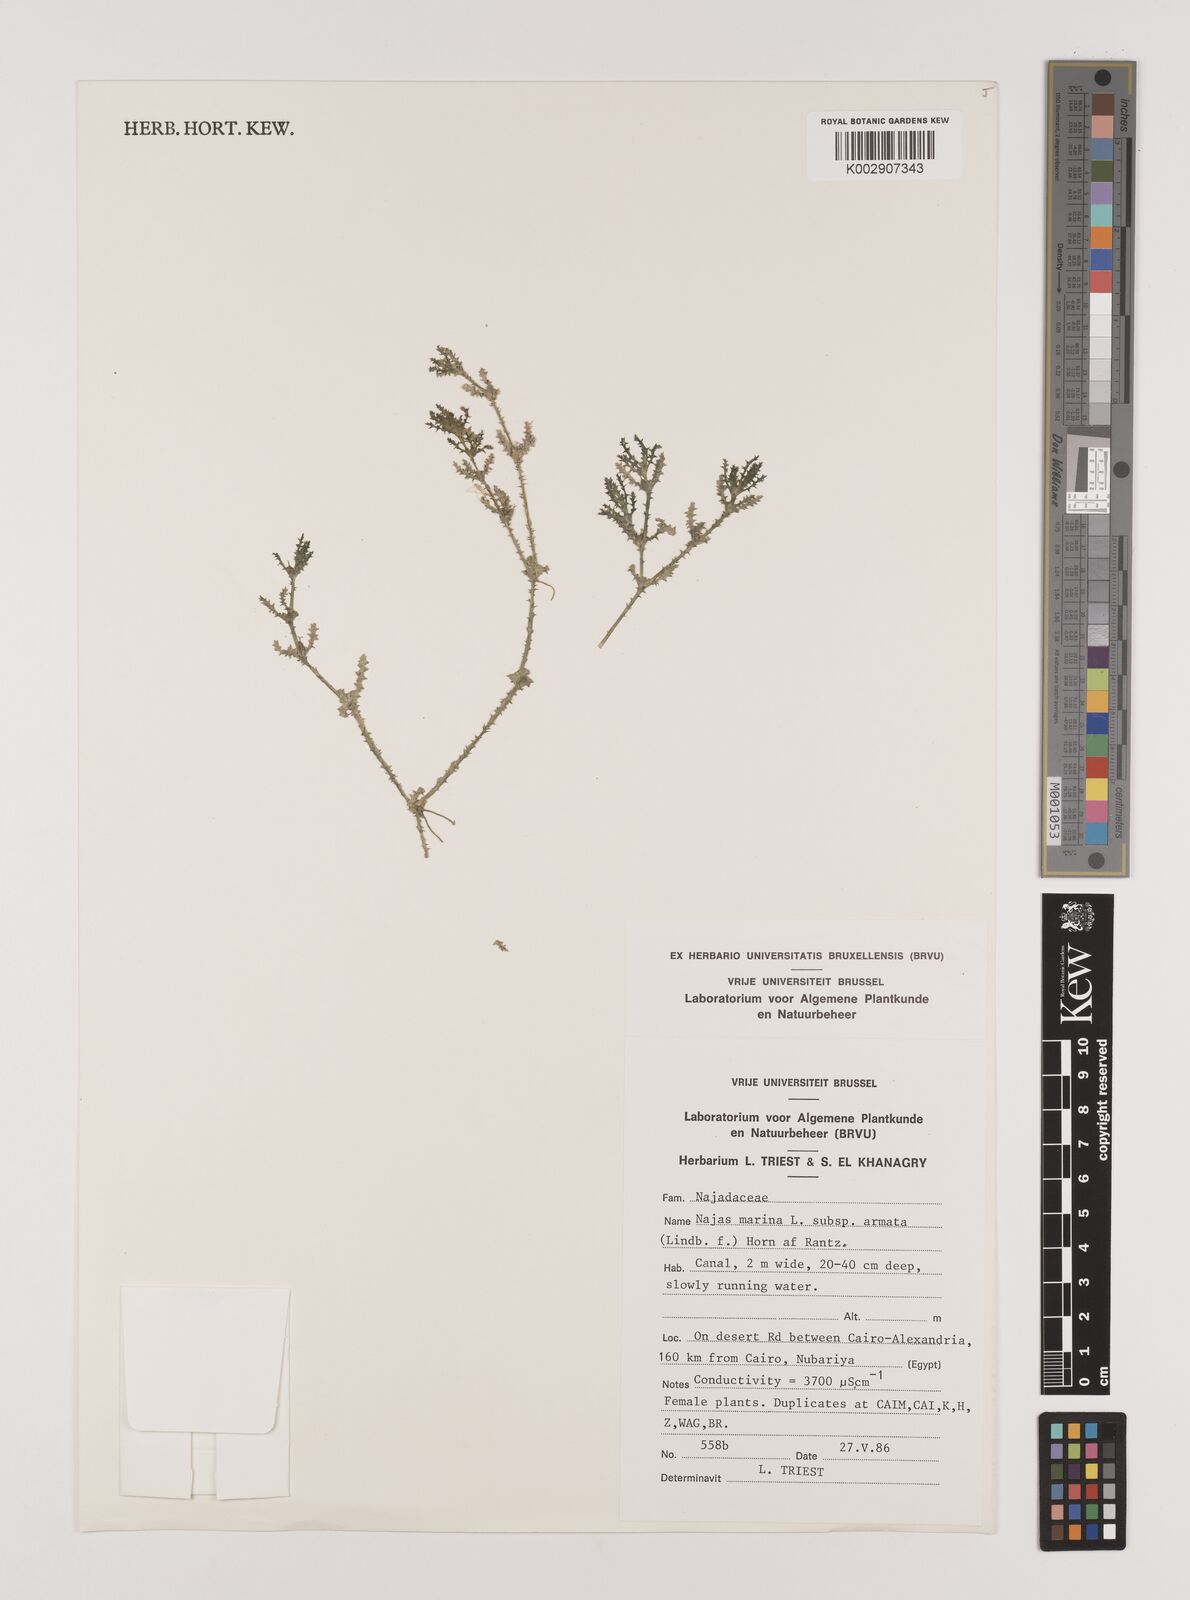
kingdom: Plantae
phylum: Tracheophyta
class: Liliopsida
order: Alismatales
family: Hydrocharitaceae
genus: Najas
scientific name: Najas marina
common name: Holly-leaved naiad
